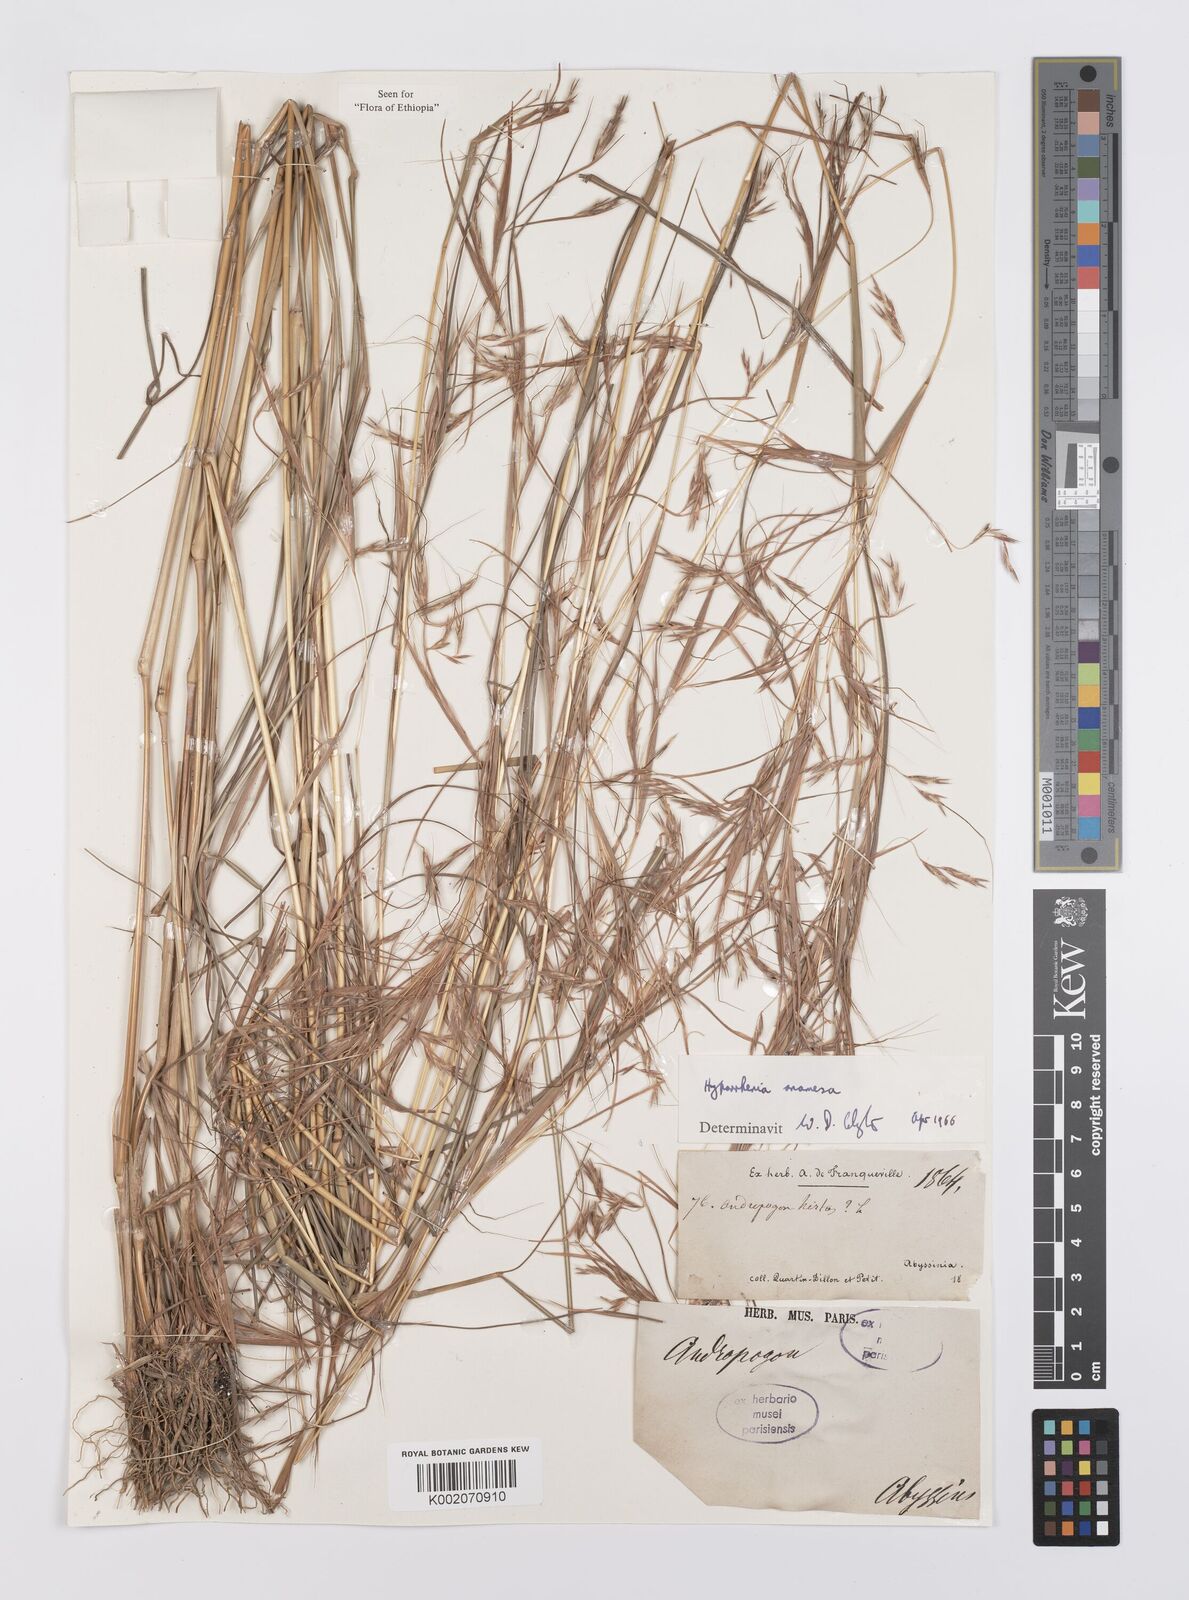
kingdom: Plantae
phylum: Tracheophyta
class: Liliopsida
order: Poales
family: Poaceae
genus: Hyparrhenia
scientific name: Hyparrhenia anamesa
